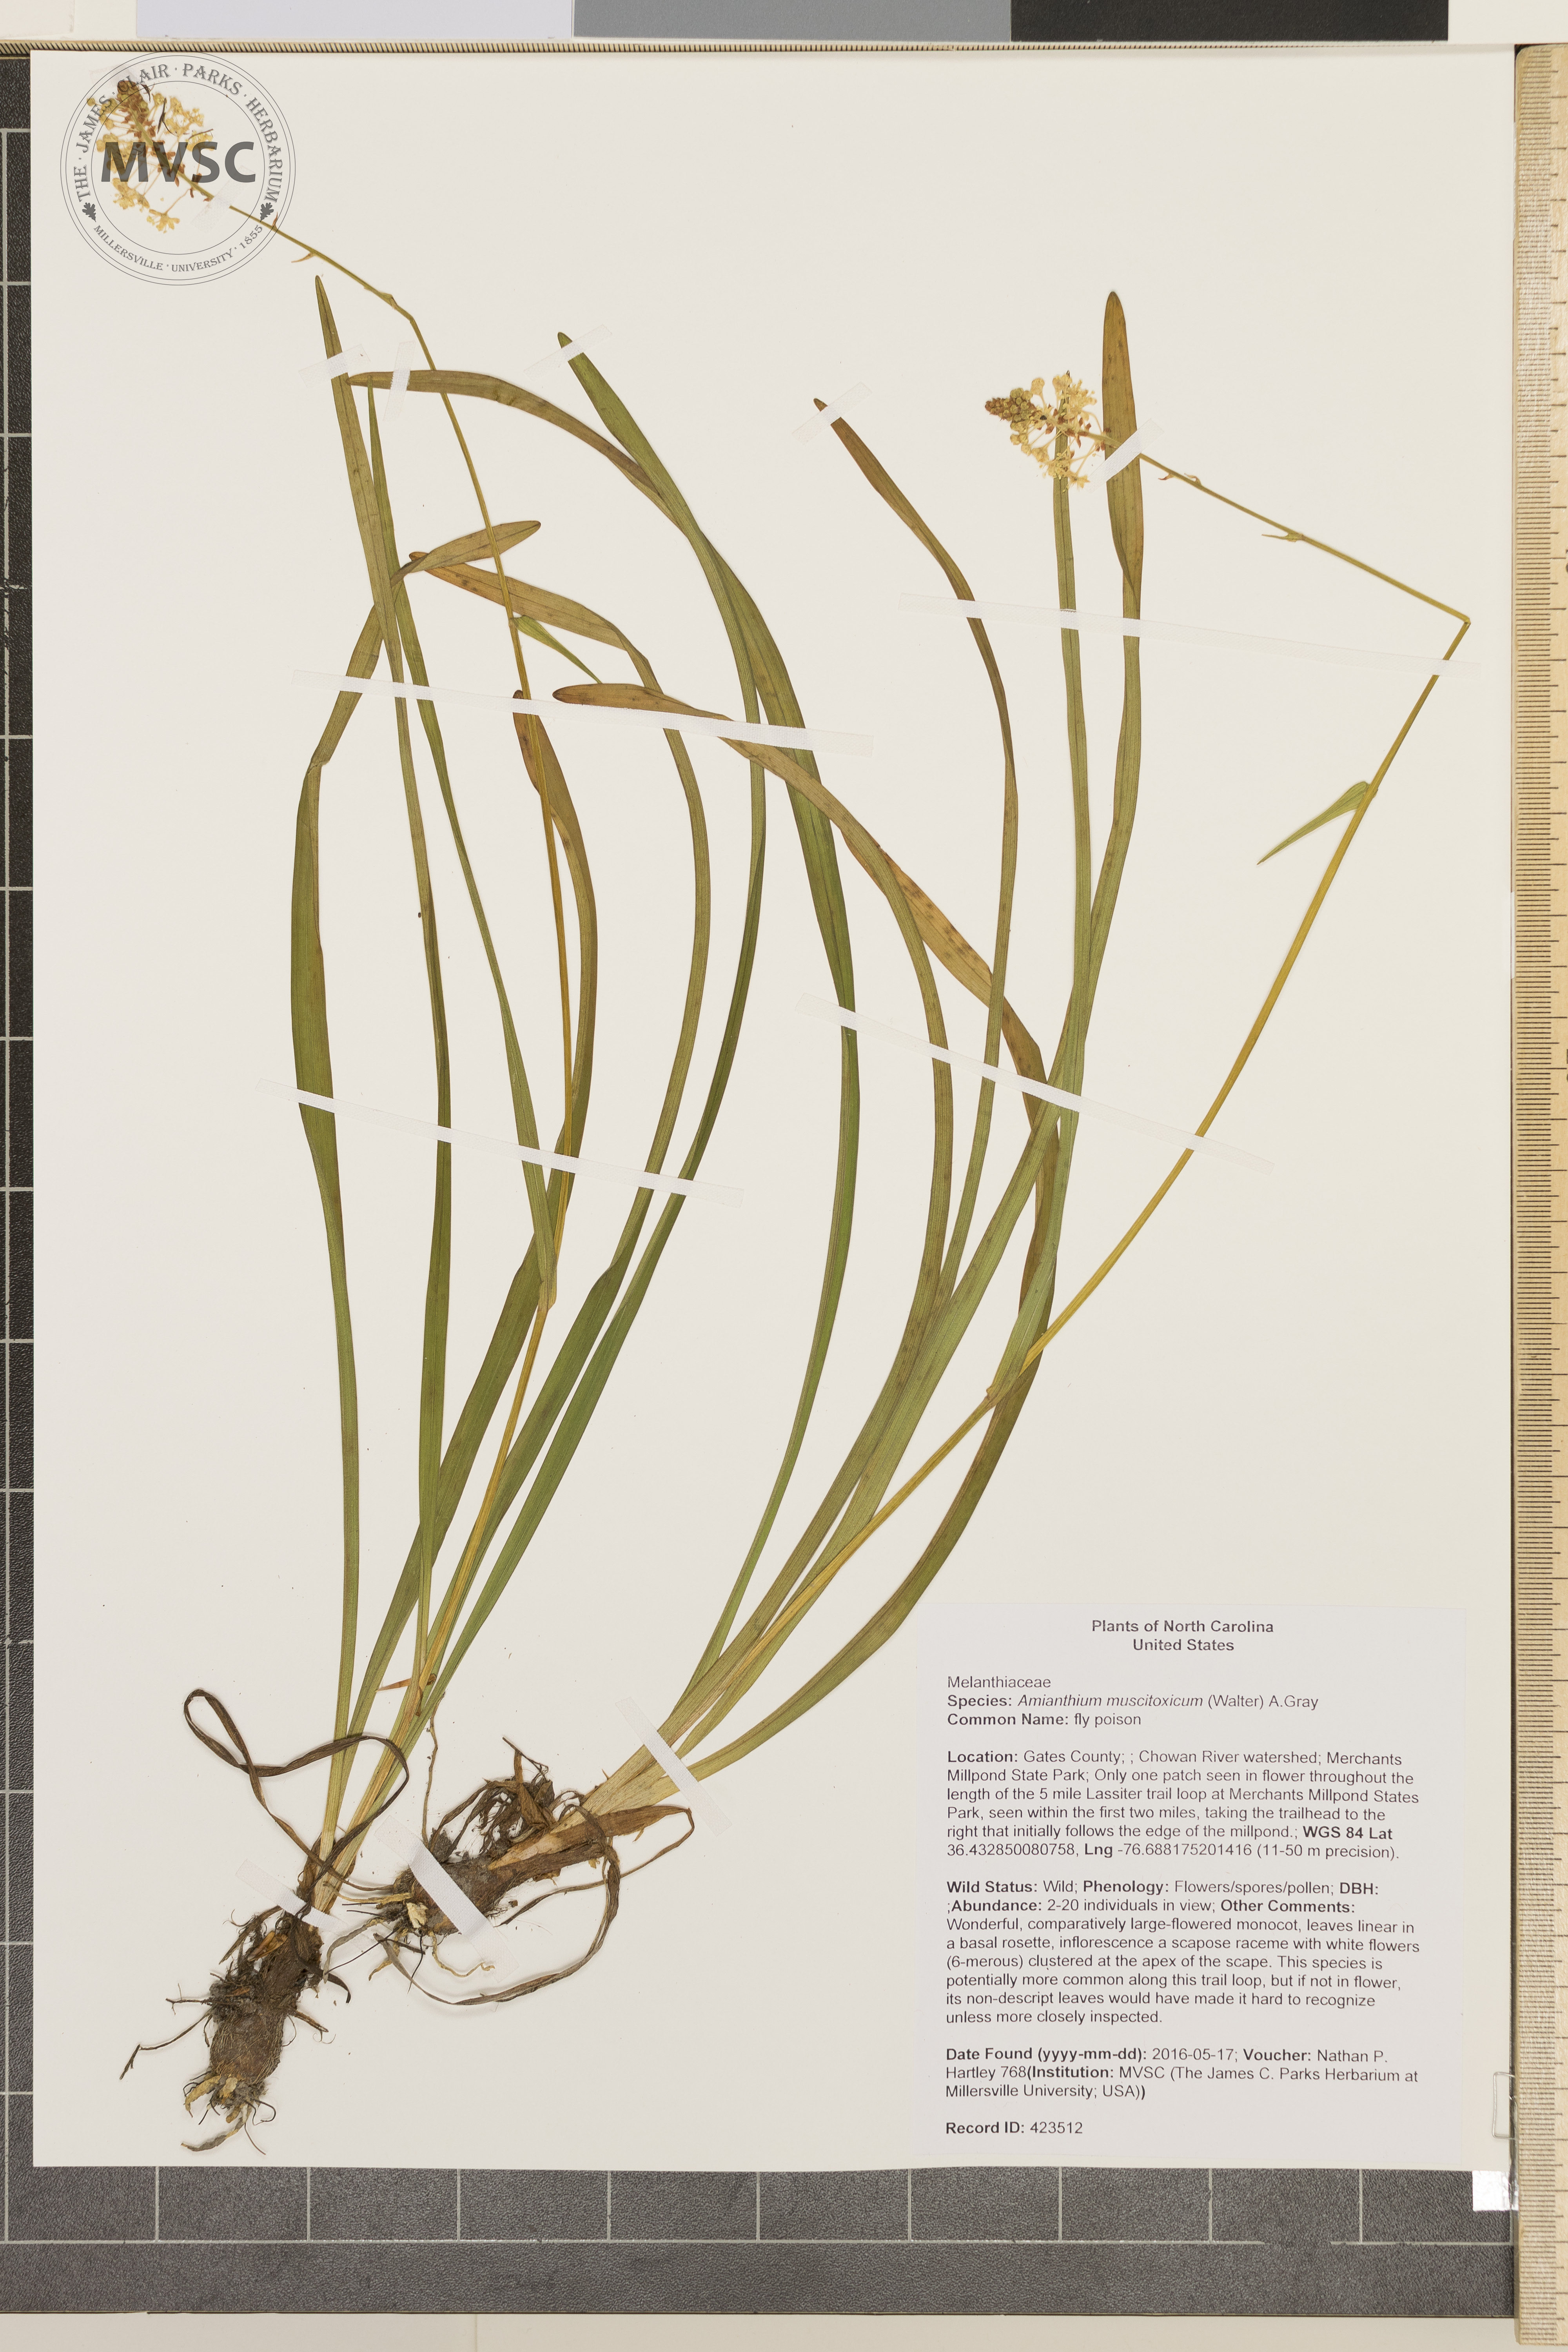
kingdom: Plantae
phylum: Tracheophyta
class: Liliopsida
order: Liliales
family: Melanthiaceae
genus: Amianthium
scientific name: Amianthium muscitoxicum
